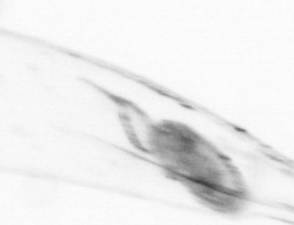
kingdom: Animalia
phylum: Chaetognatha
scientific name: Chaetognatha
